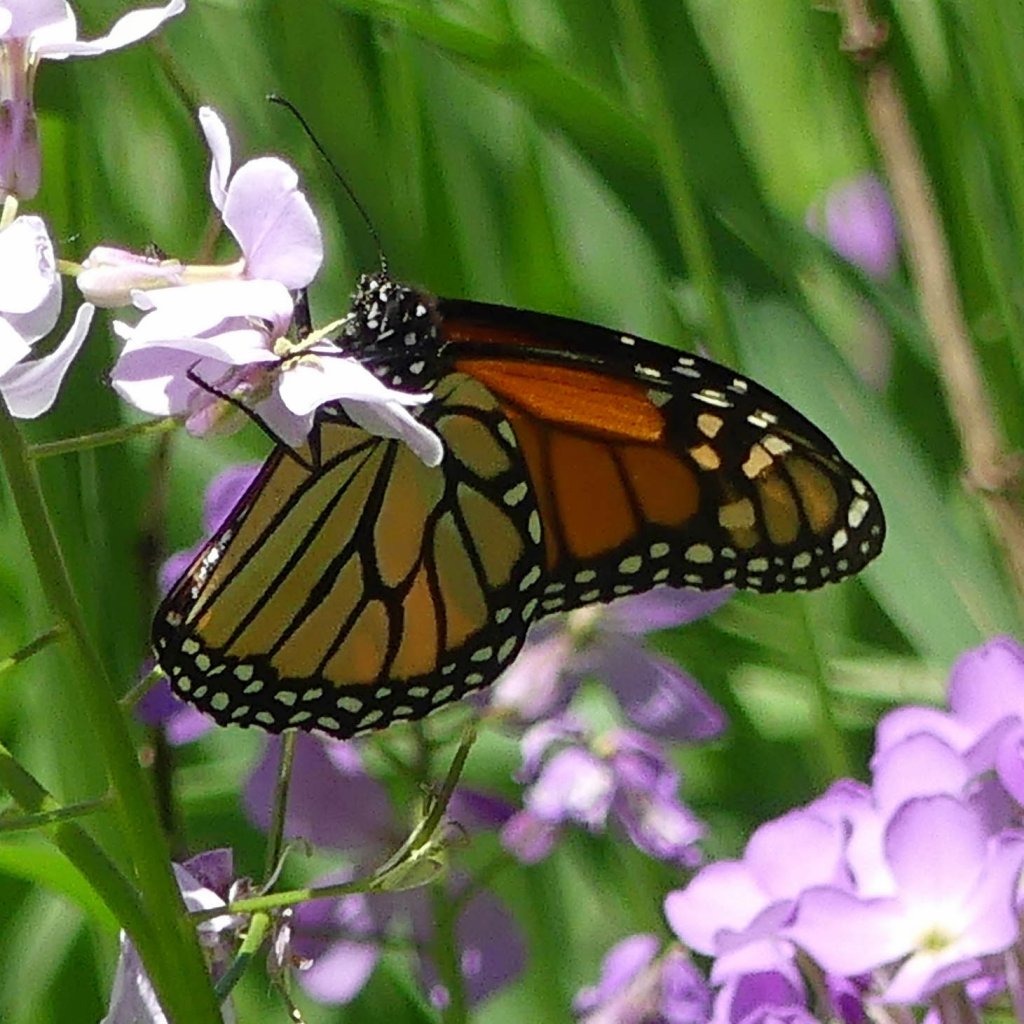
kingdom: Animalia
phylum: Arthropoda
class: Insecta
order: Lepidoptera
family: Nymphalidae
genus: Danaus
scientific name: Danaus plexippus
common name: Monarch
